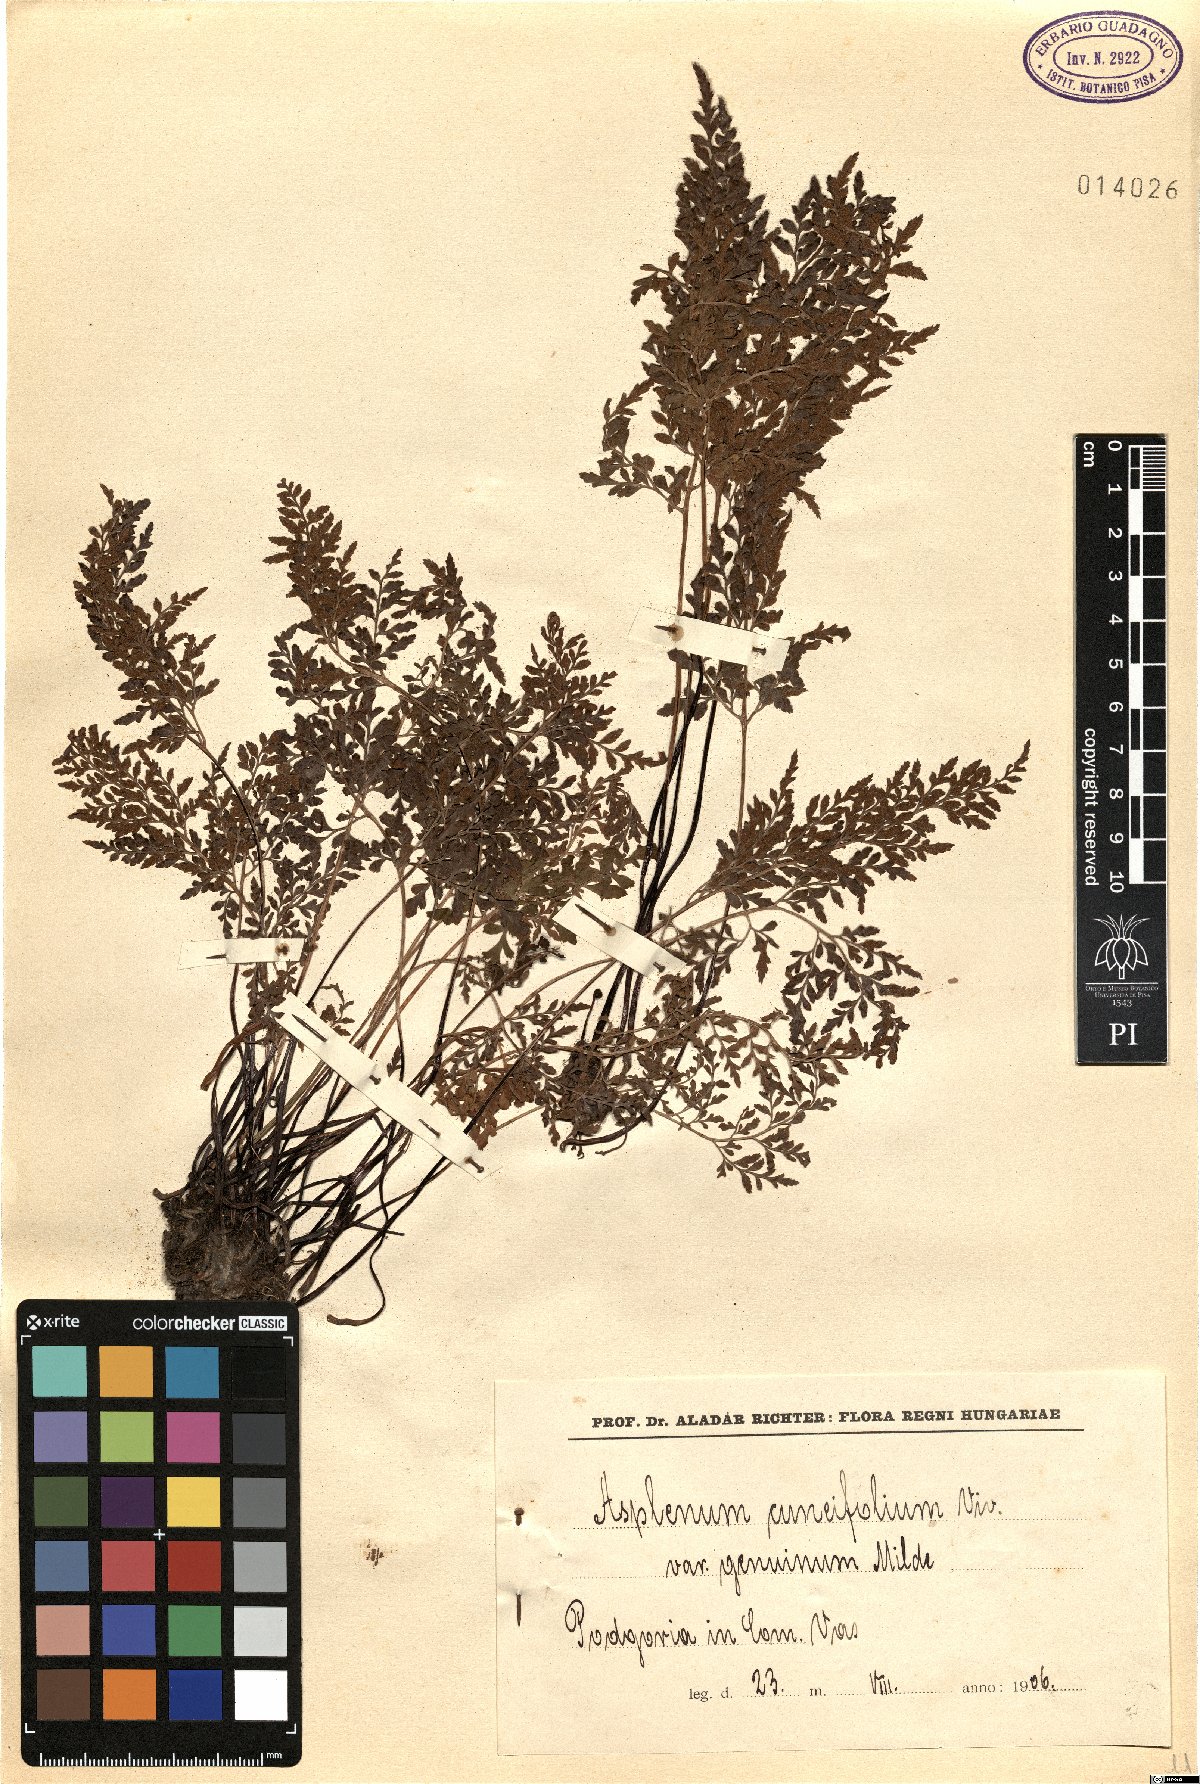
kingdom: Plantae
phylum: Tracheophyta
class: Polypodiopsida
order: Polypodiales
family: Aspleniaceae
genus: Asplenium
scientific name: Asplenium cuneifolium
